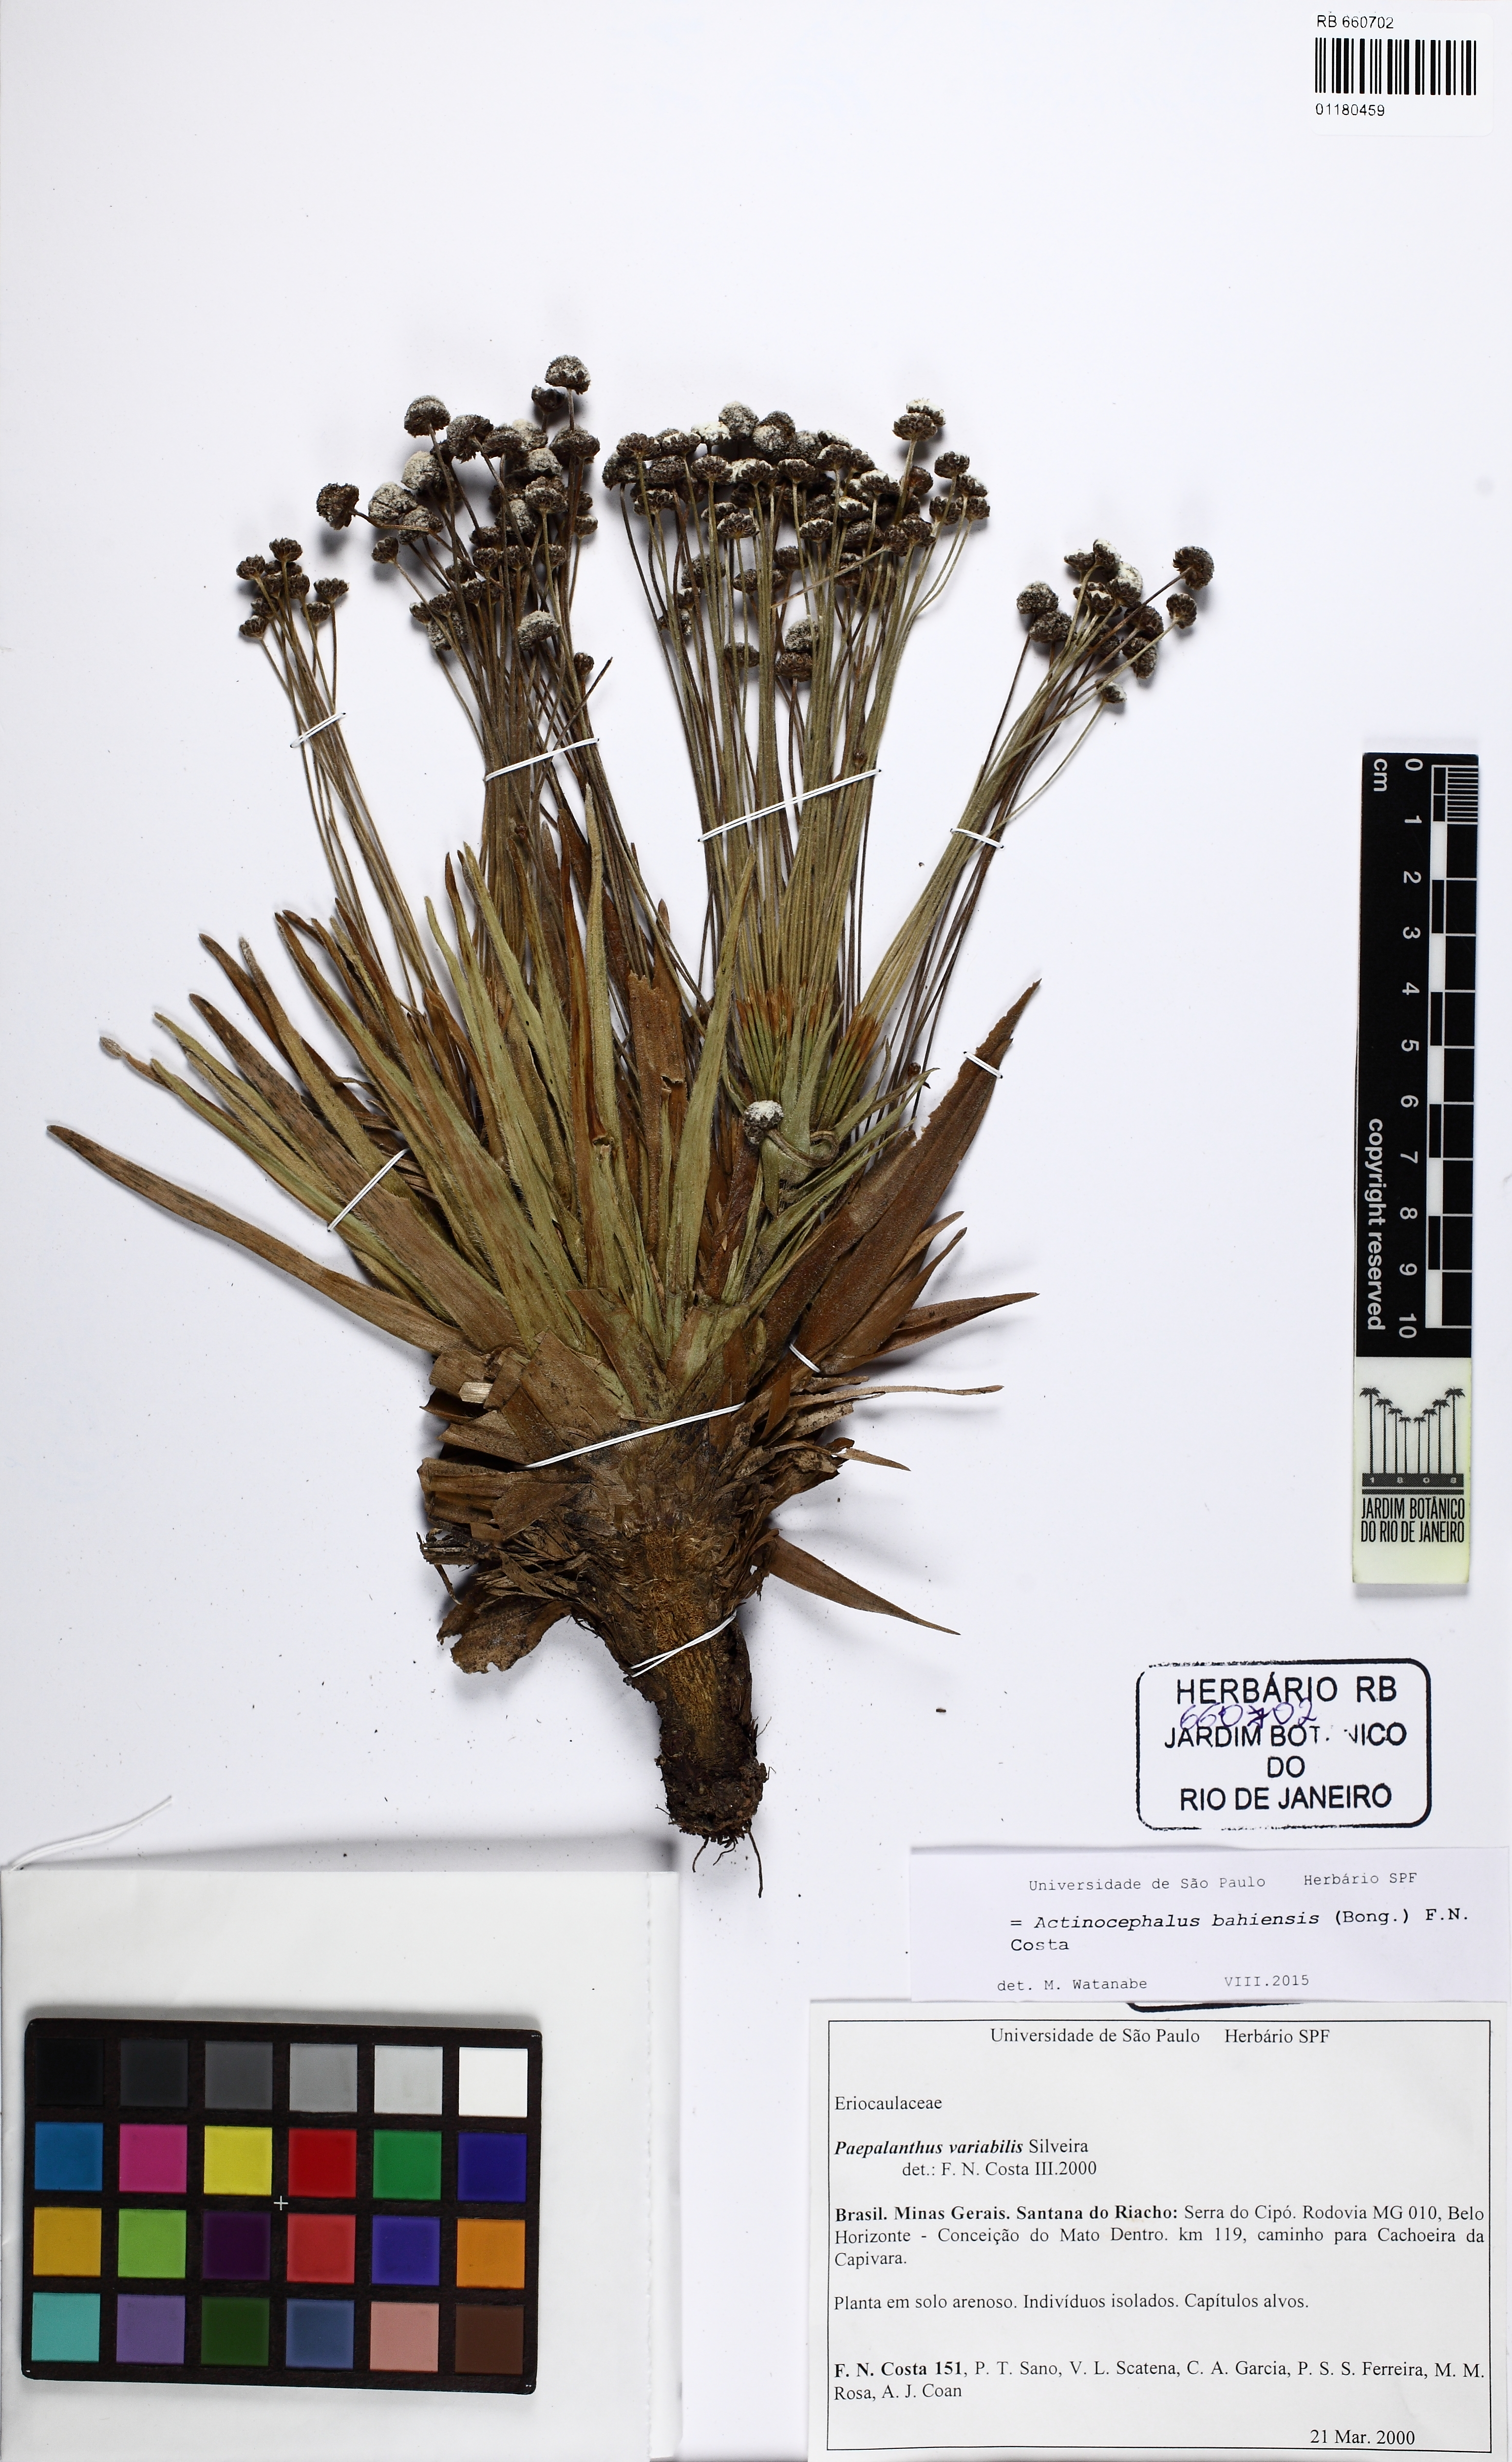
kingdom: Plantae
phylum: Tracheophyta
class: Liliopsida
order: Poales
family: Eriocaulaceae
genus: Paepalanthus
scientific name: Paepalanthus bahiensis
